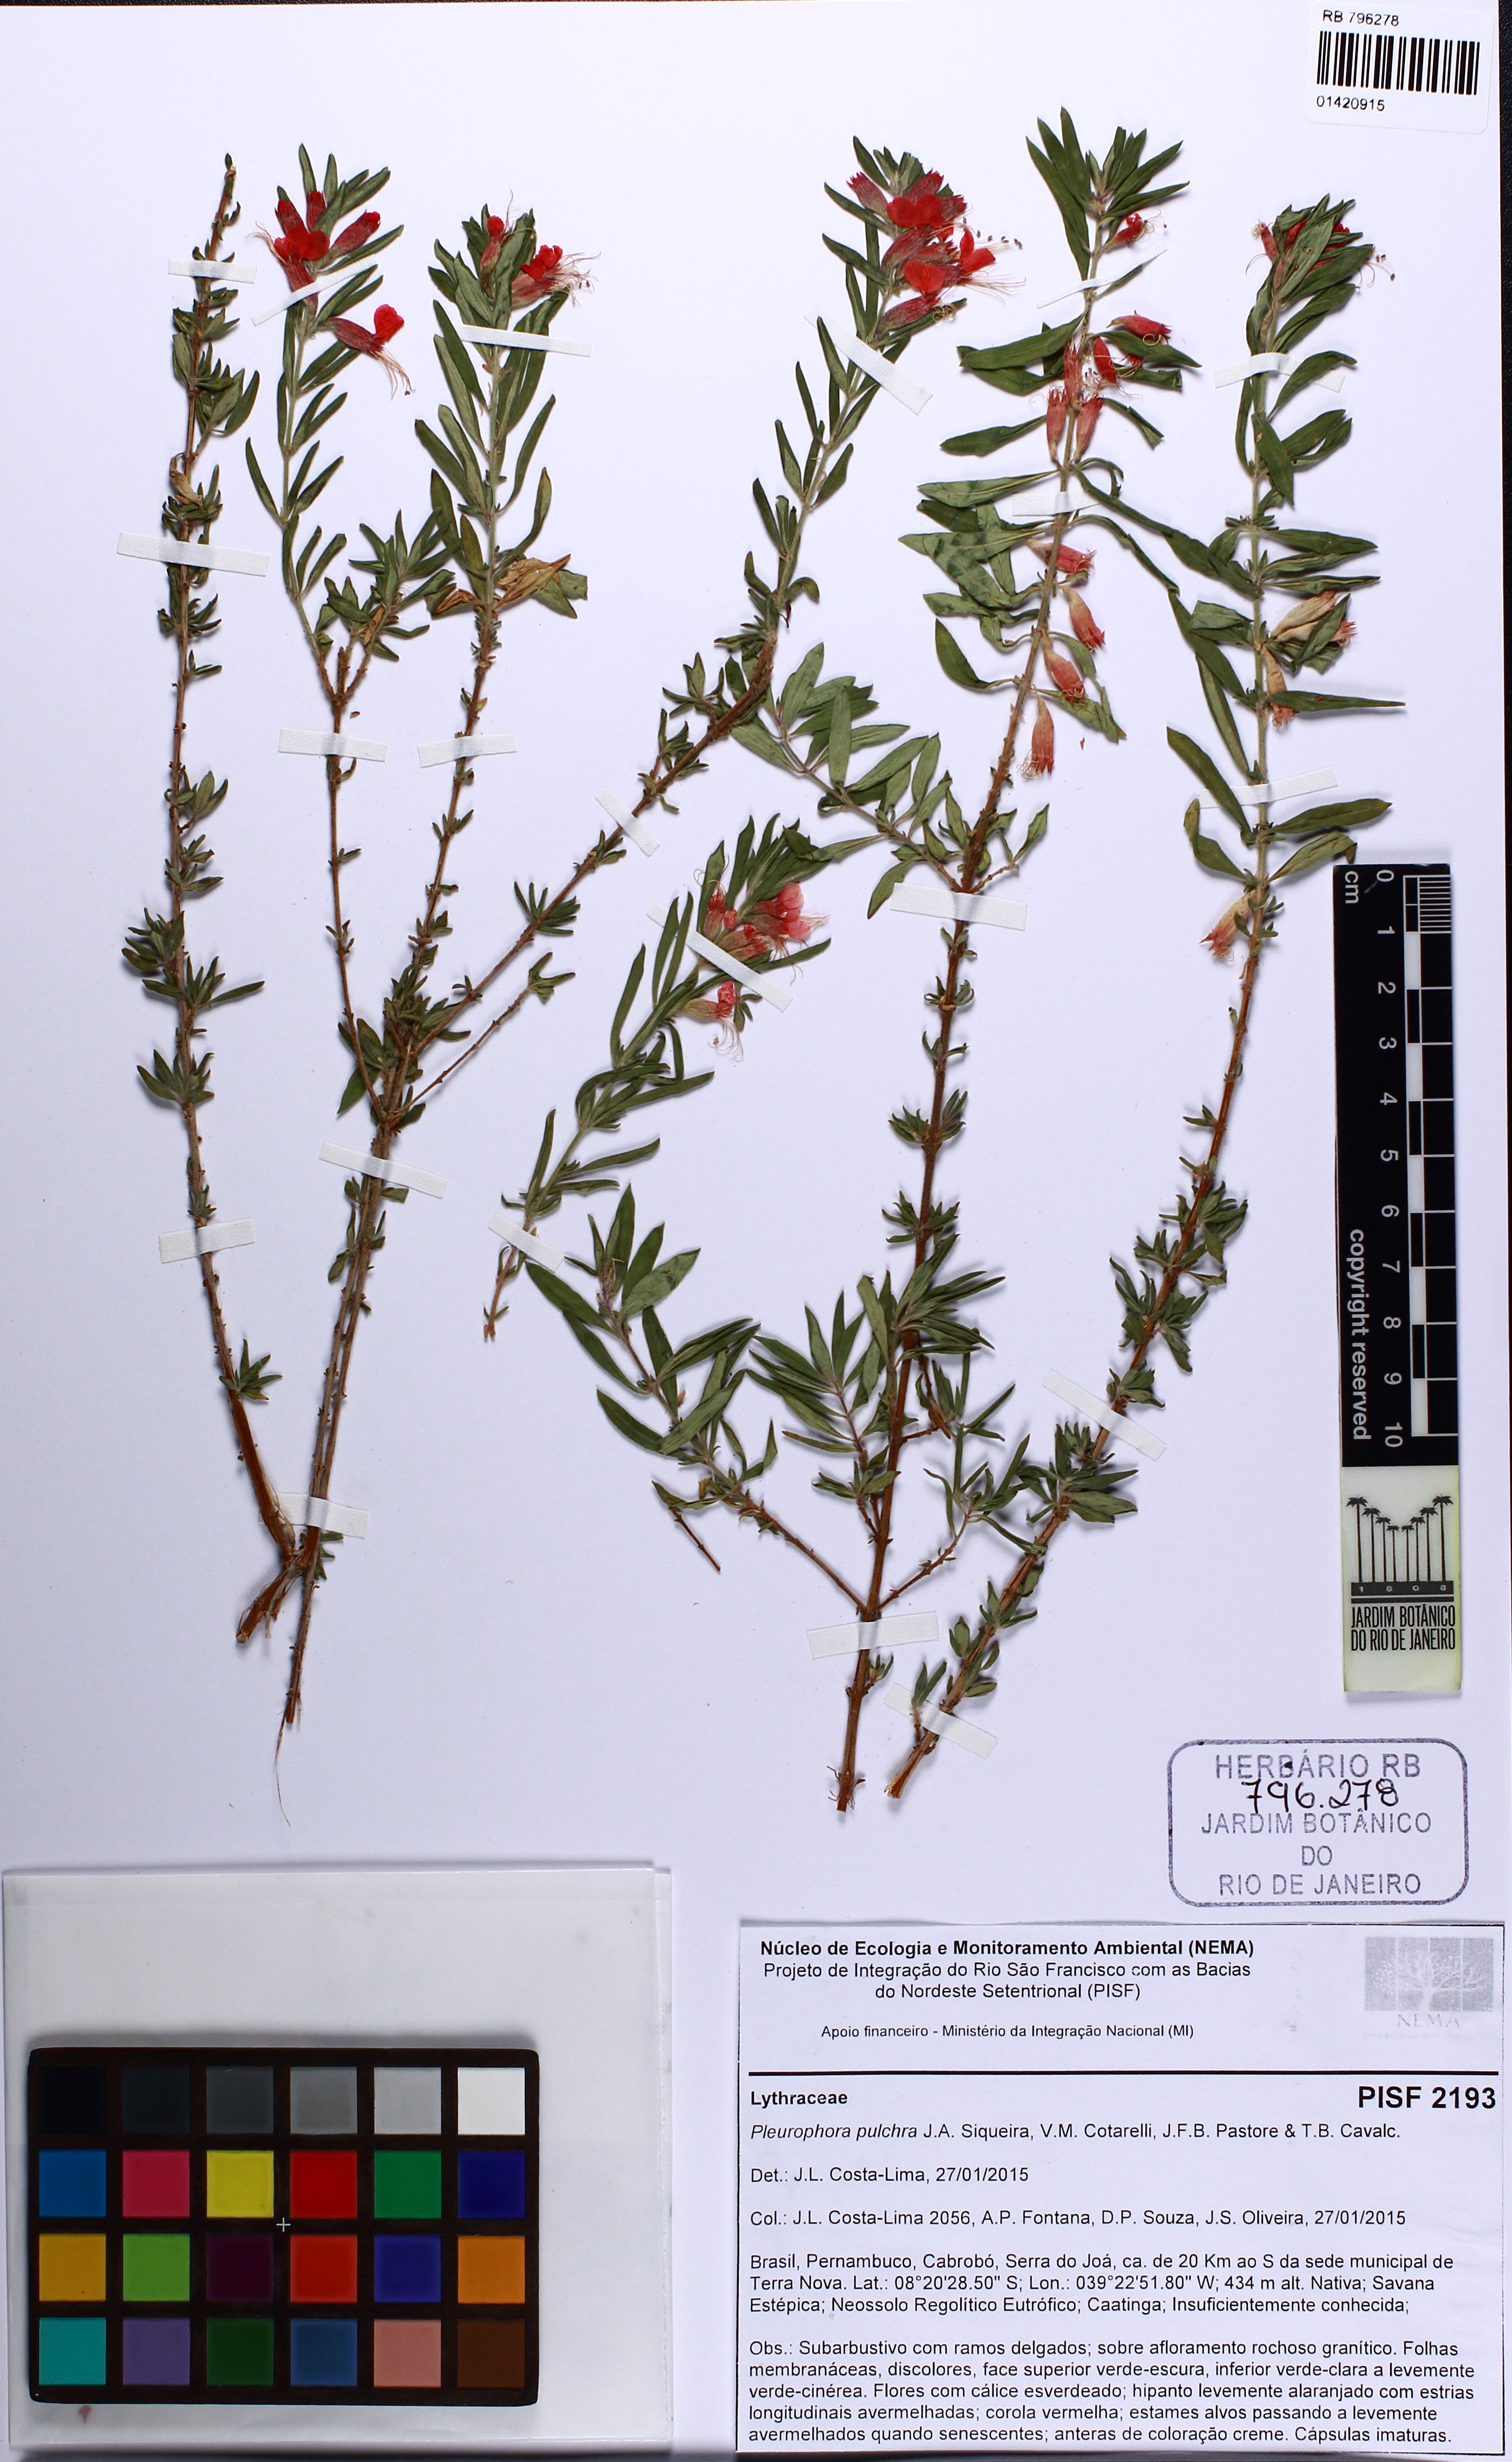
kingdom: Plantae
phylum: Tracheophyta
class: Magnoliopsida
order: Myrtales
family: Lythraceae
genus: Pleurophora
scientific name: Pleurophora pulchra
